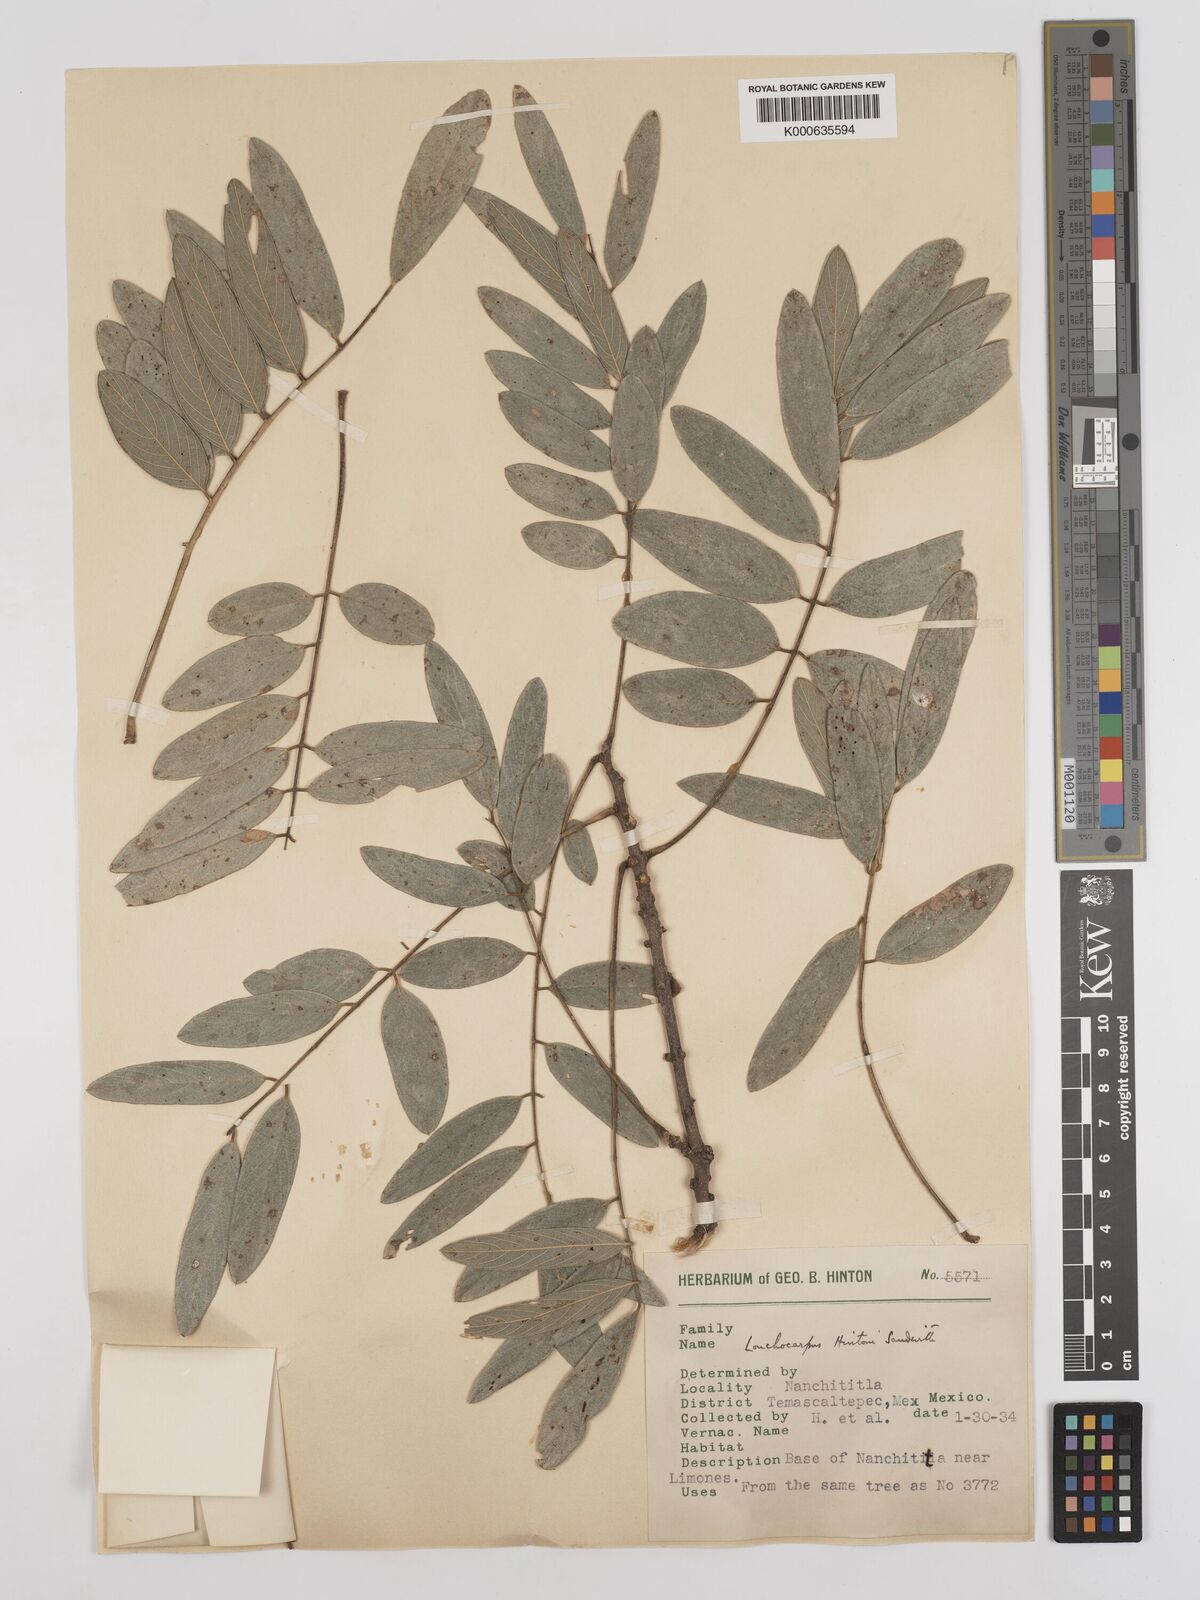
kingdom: Plantae
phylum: Tracheophyta
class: Magnoliopsida
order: Fabales
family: Fabaceae
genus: Lonchocarpus
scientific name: Lonchocarpus hintonii
